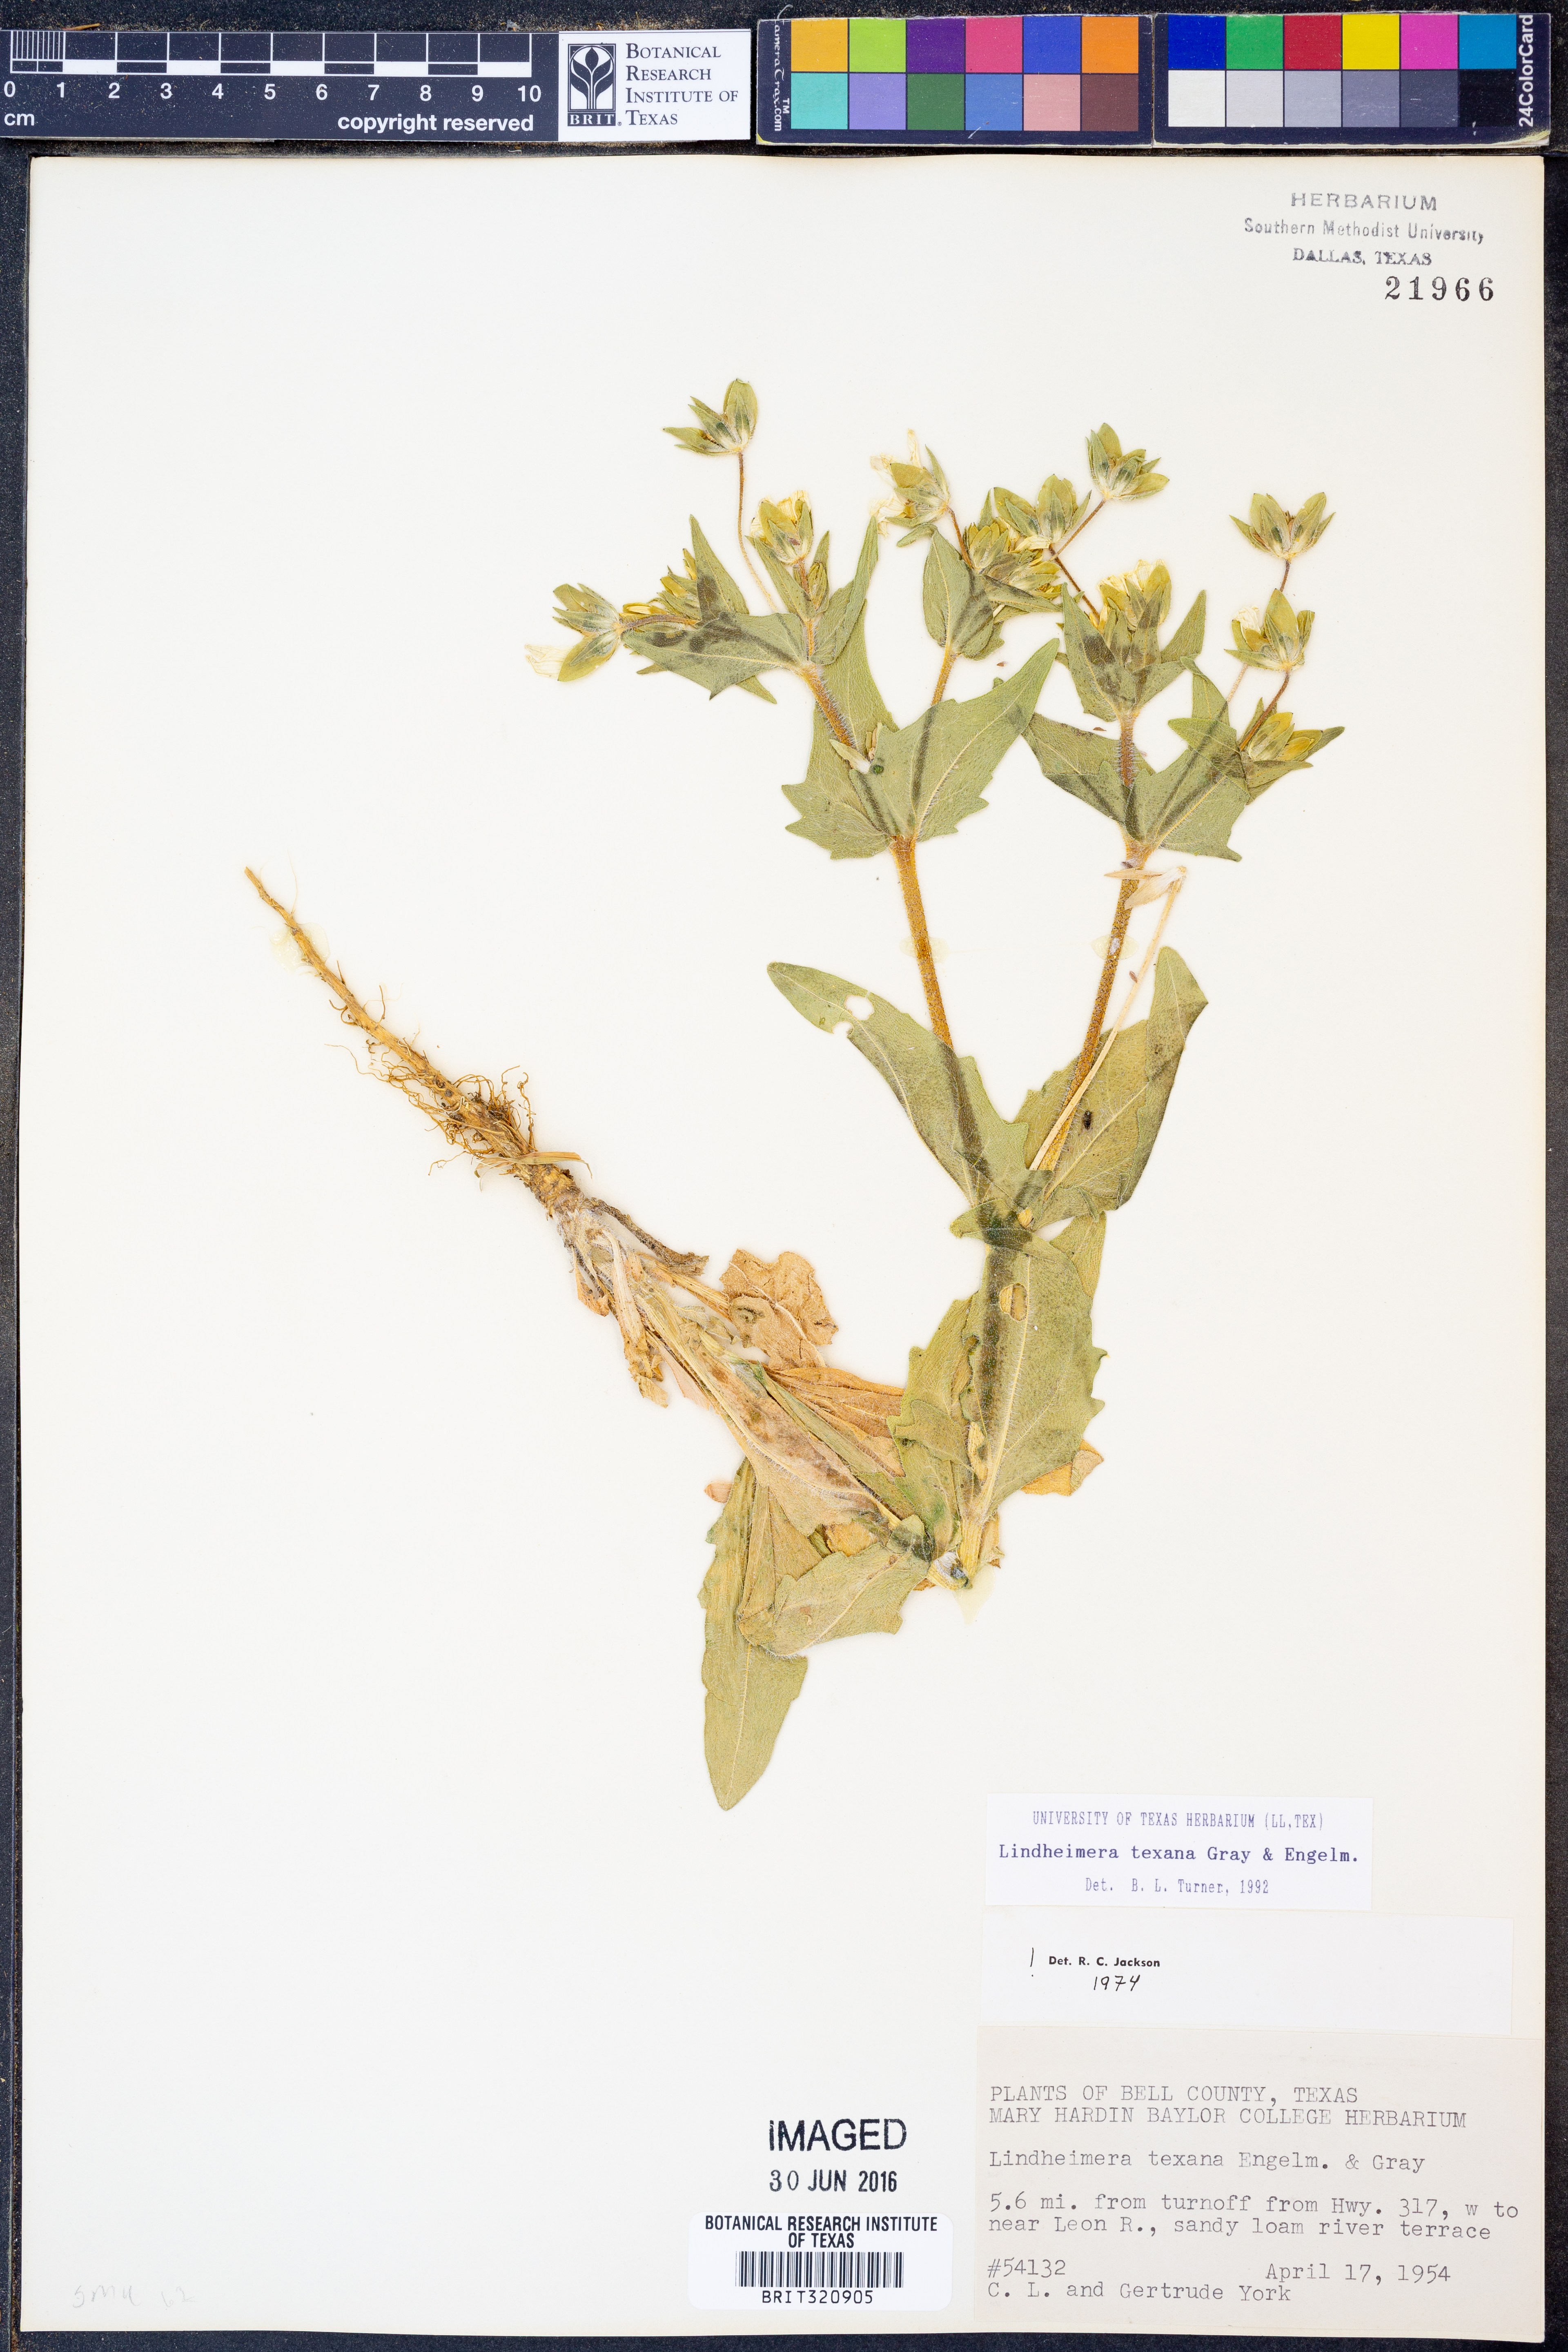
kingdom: Plantae
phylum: Tracheophyta
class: Magnoliopsida
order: Asterales
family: Asteraceae
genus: Lindheimera
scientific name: Lindheimera texana
